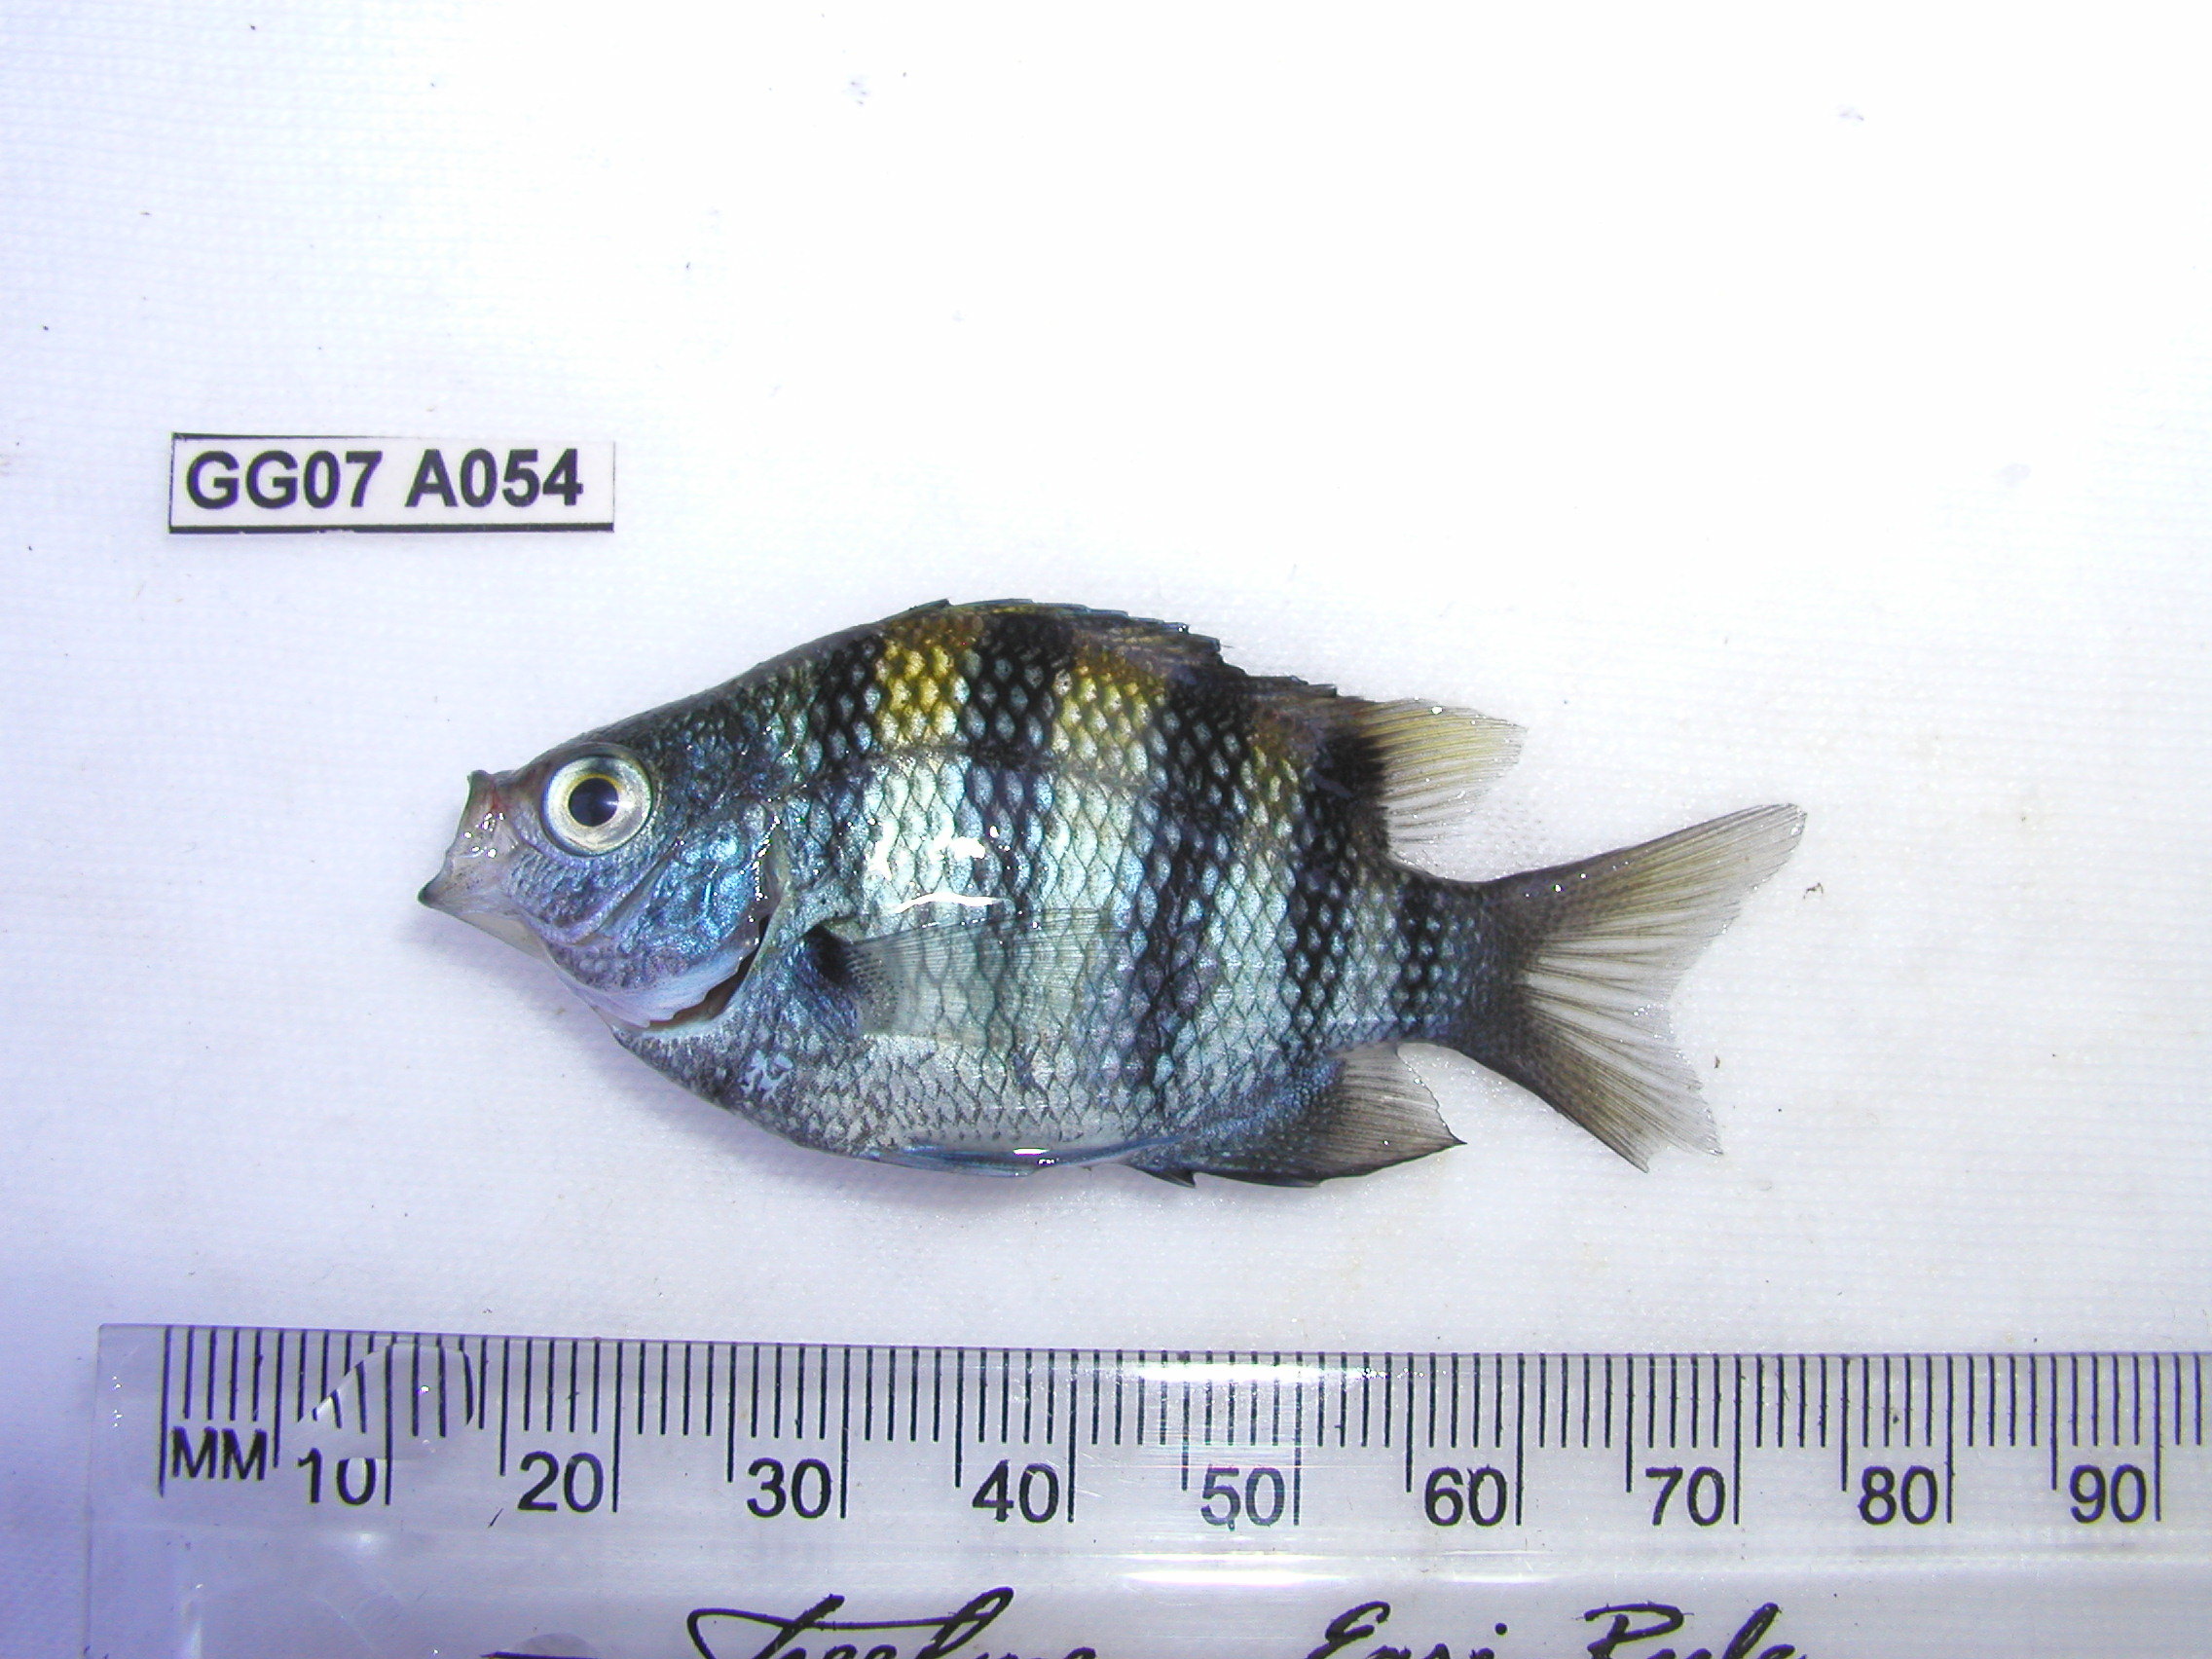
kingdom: Animalia
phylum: Chordata
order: Perciformes
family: Pomacentridae
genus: Abudefduf
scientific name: Abudefduf vaigiensis
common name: Indo-pacific sergeant
